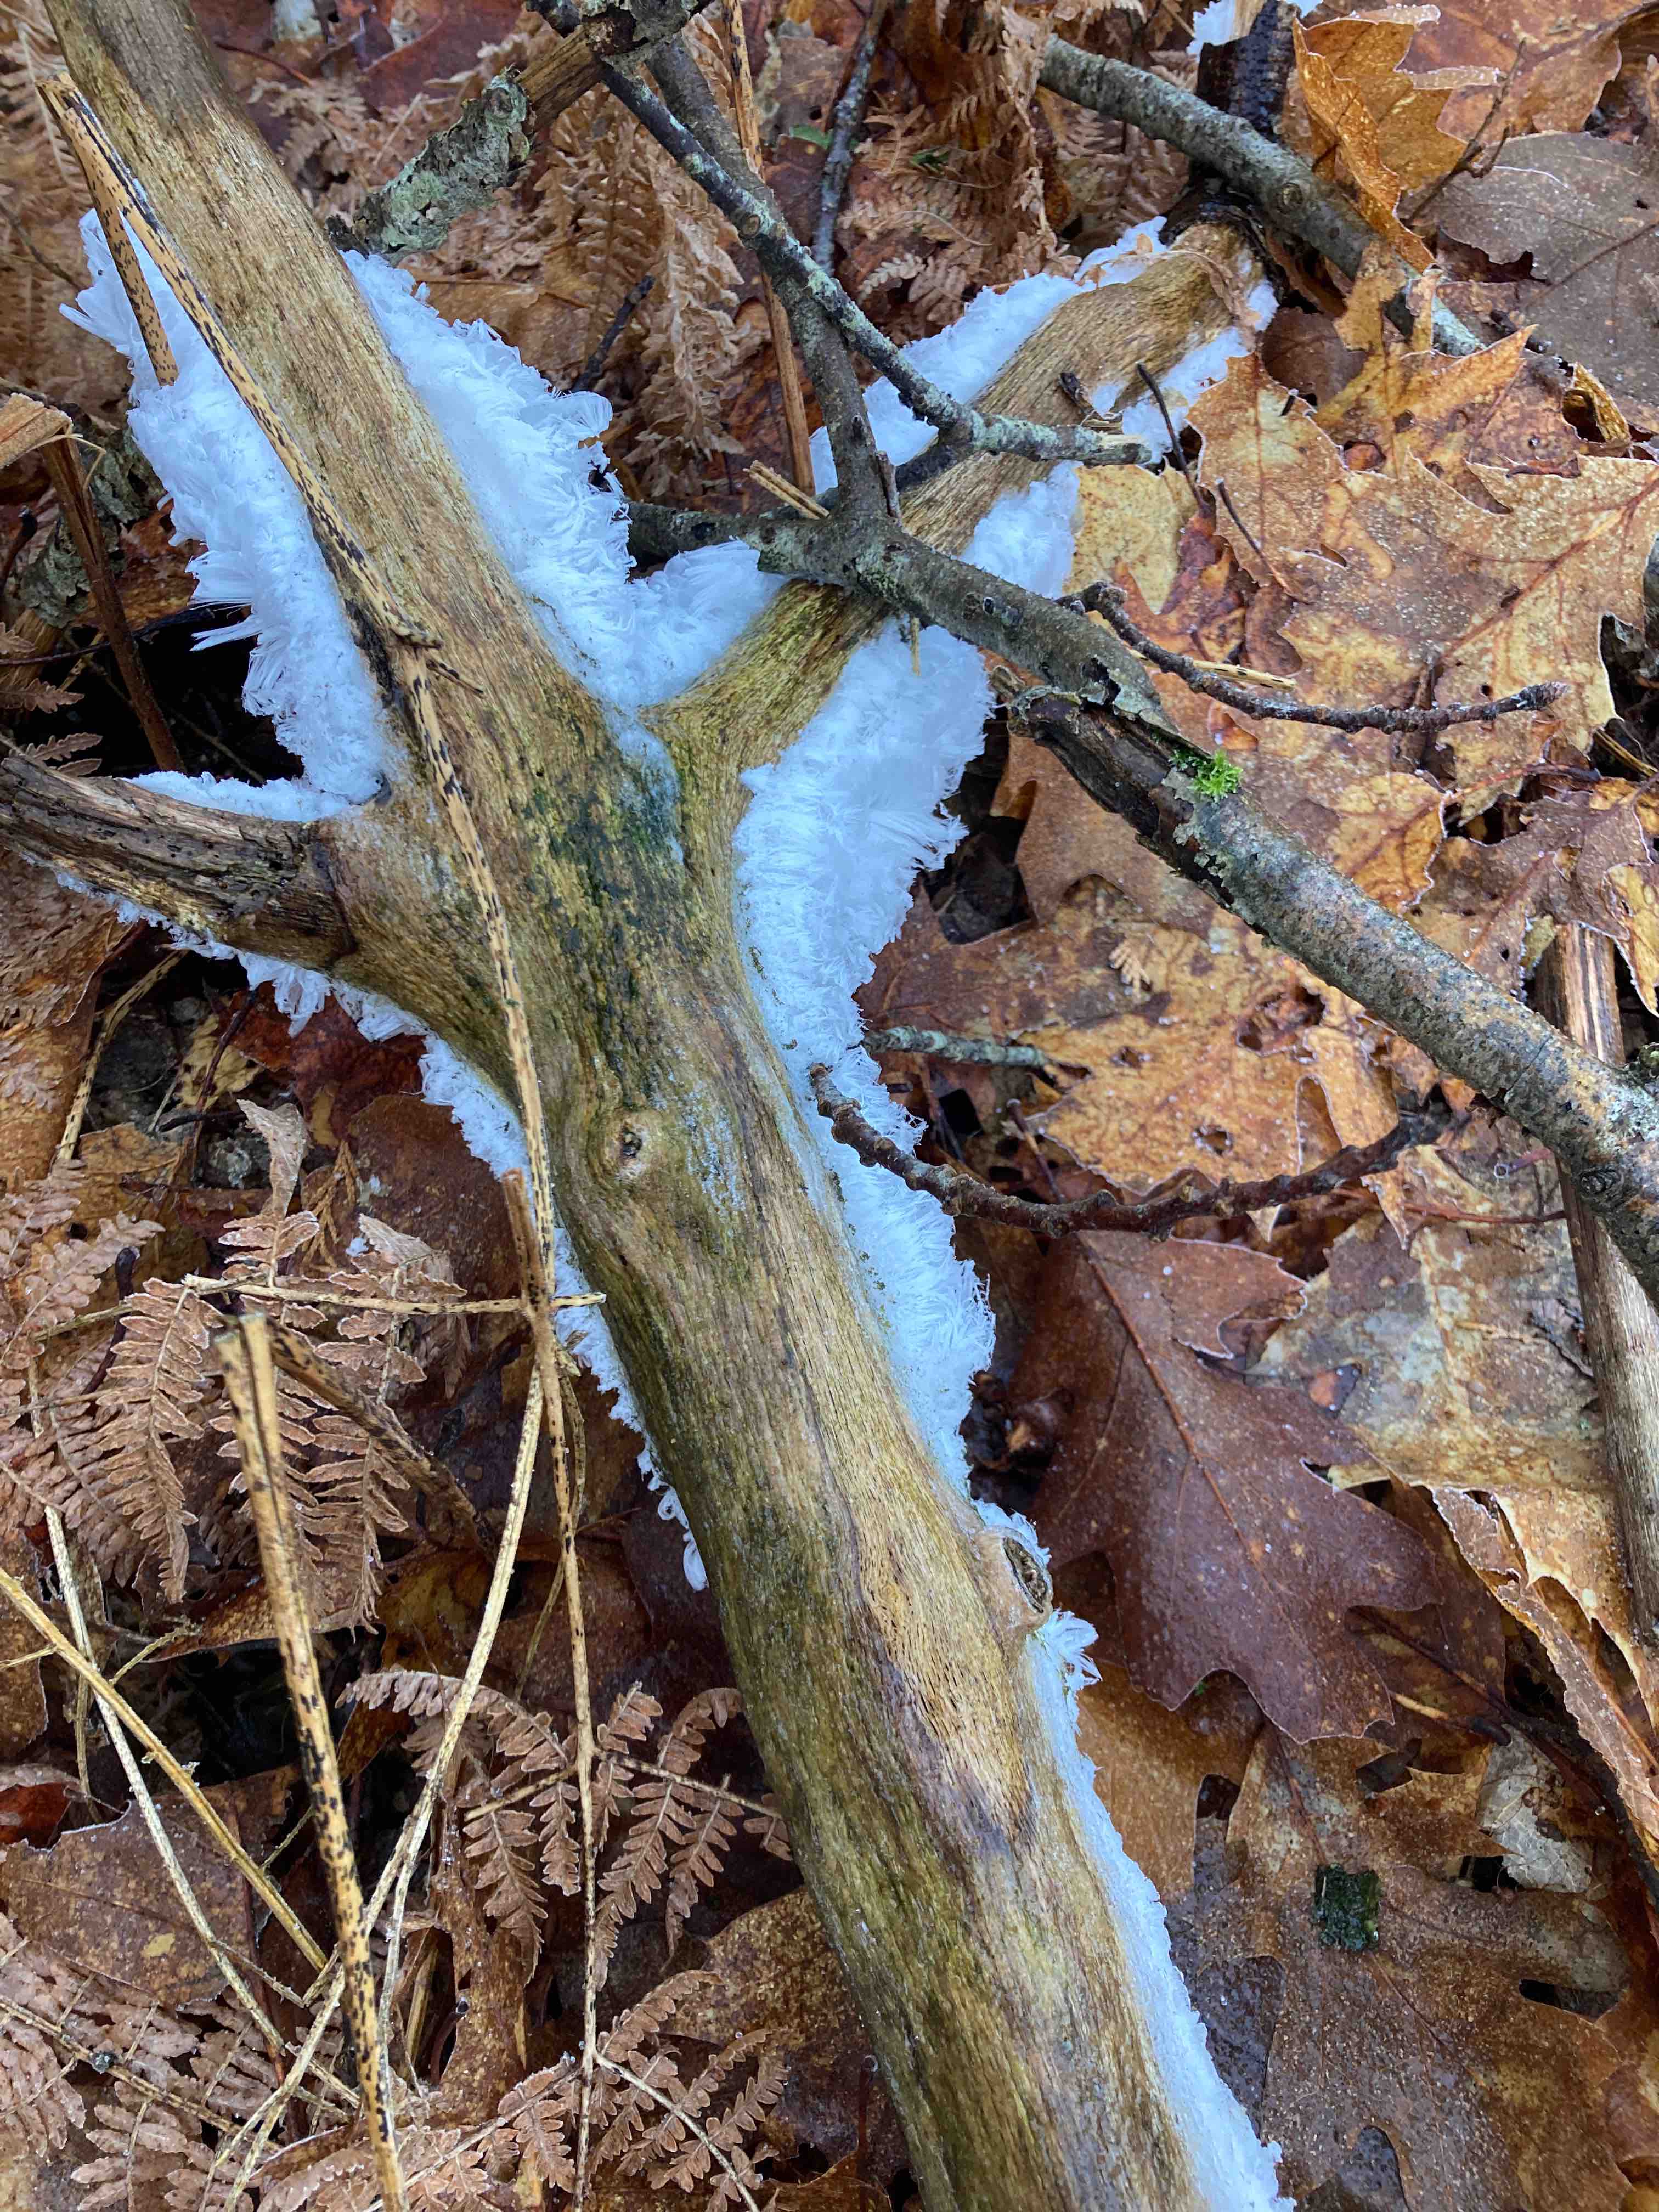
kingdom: Fungi
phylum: Basidiomycota
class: Tremellomycetes
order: Tremellales
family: Exidiaceae
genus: Exidiopsis
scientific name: Exidiopsis effusa
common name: smuk bævrehinde
